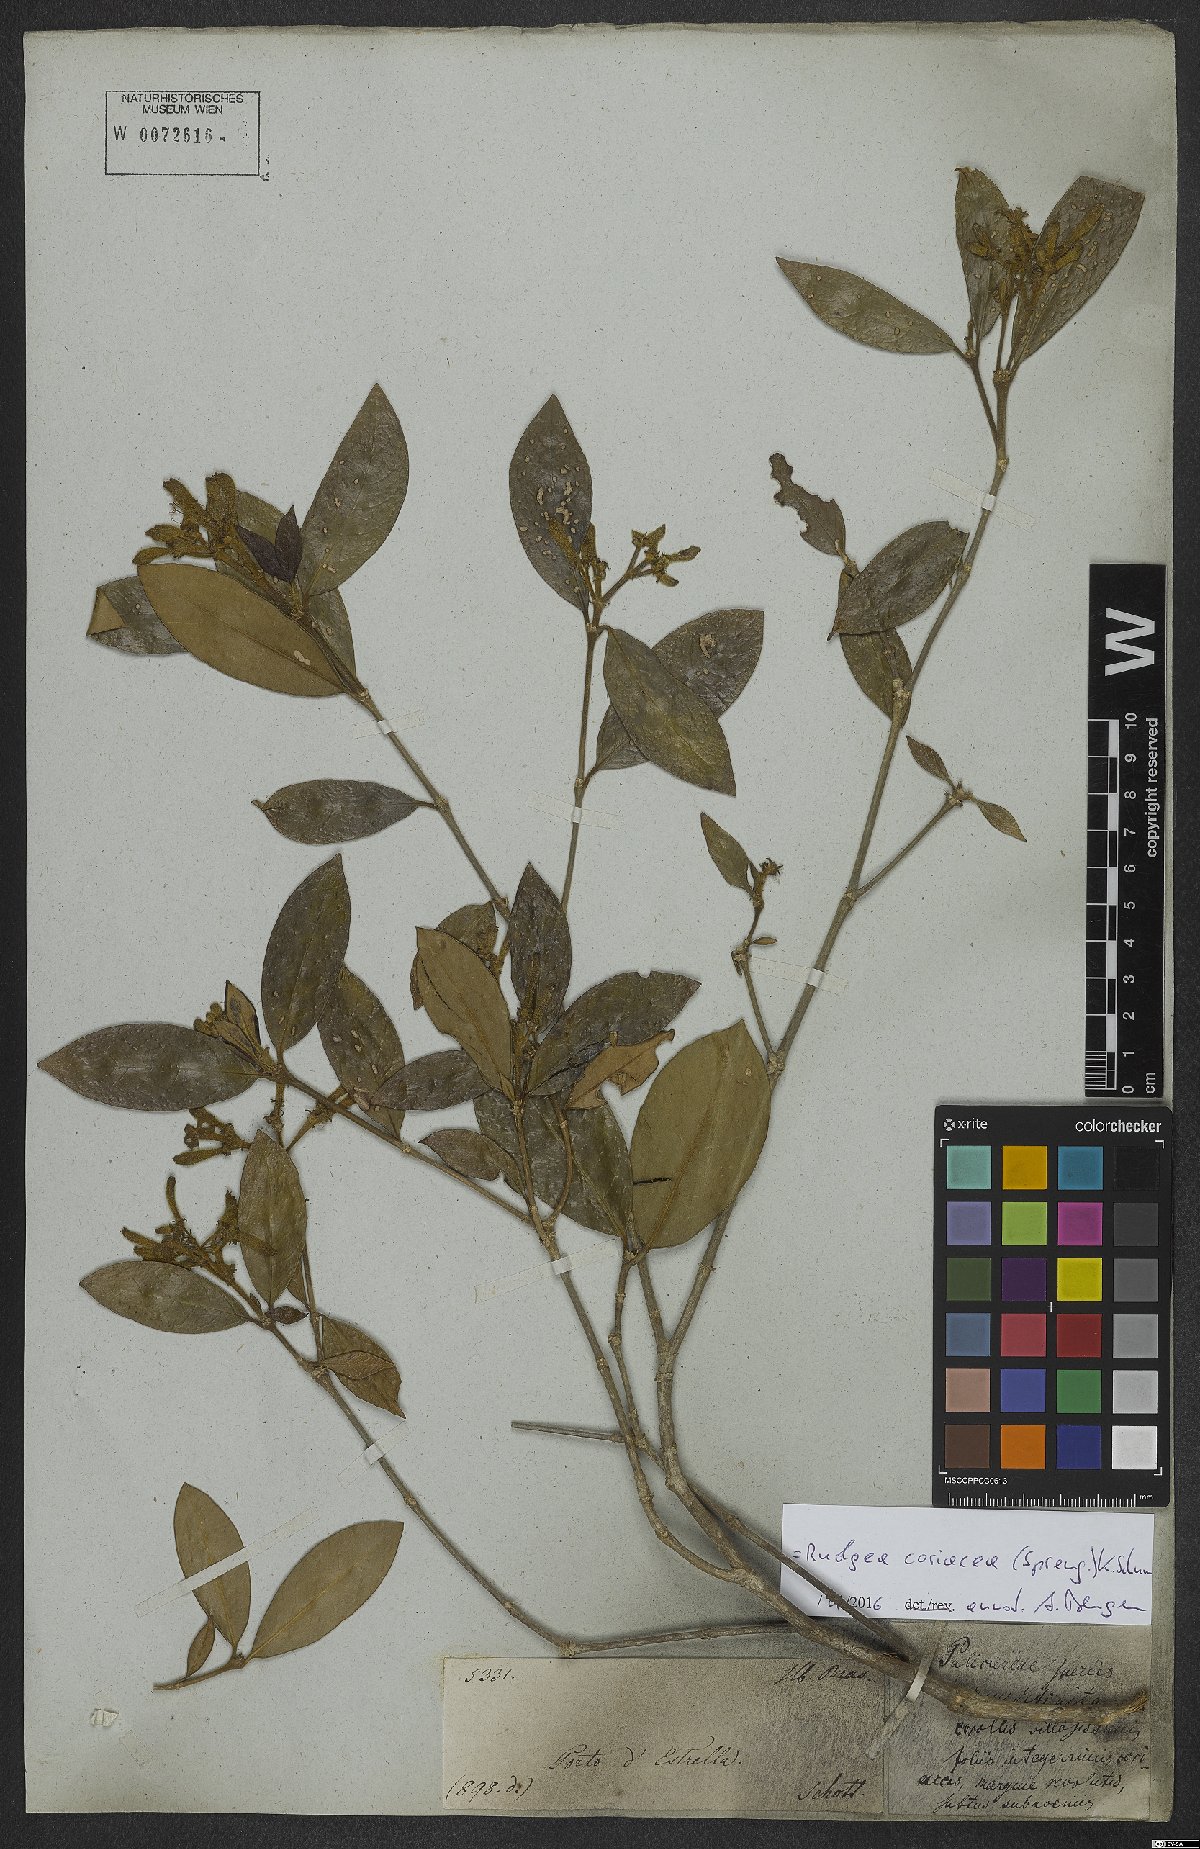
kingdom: Plantae
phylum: Tracheophyta
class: Magnoliopsida
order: Gentianales
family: Rubiaceae
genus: Rudgea
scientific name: Rudgea coriacea
